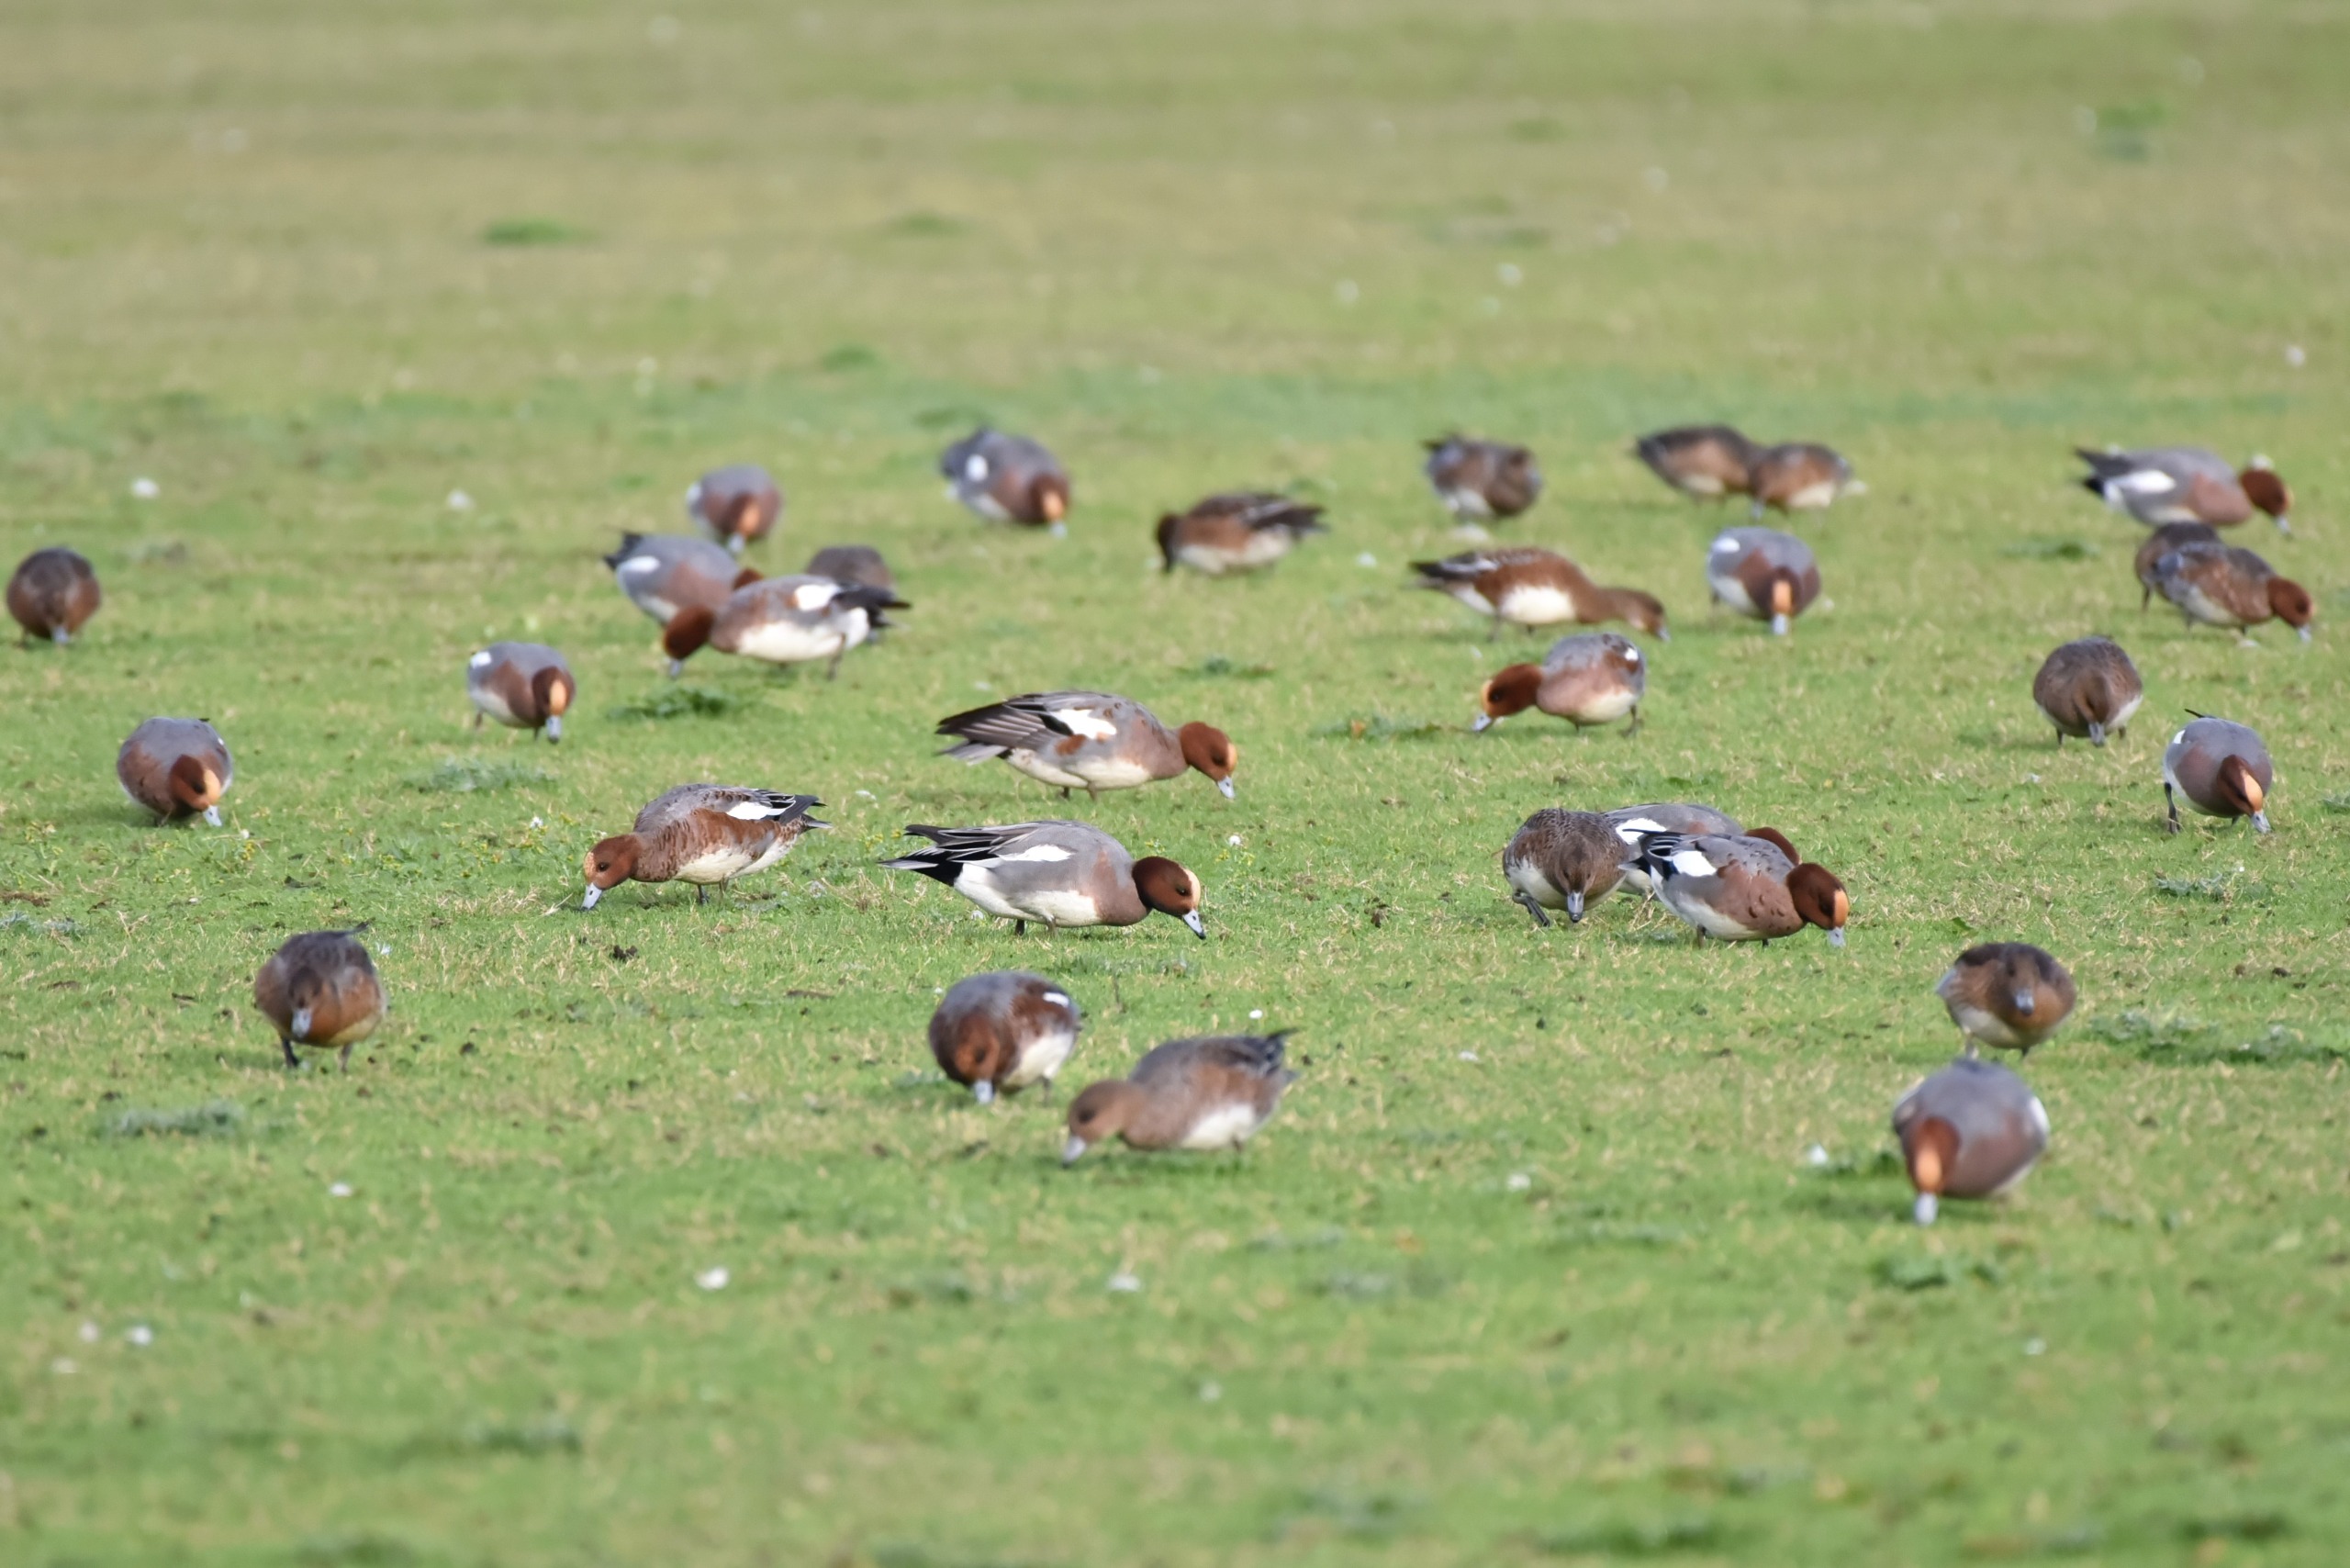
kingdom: Animalia
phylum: Chordata
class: Aves
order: Anseriformes
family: Anatidae
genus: Mareca
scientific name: Mareca penelope
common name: Pibeand
